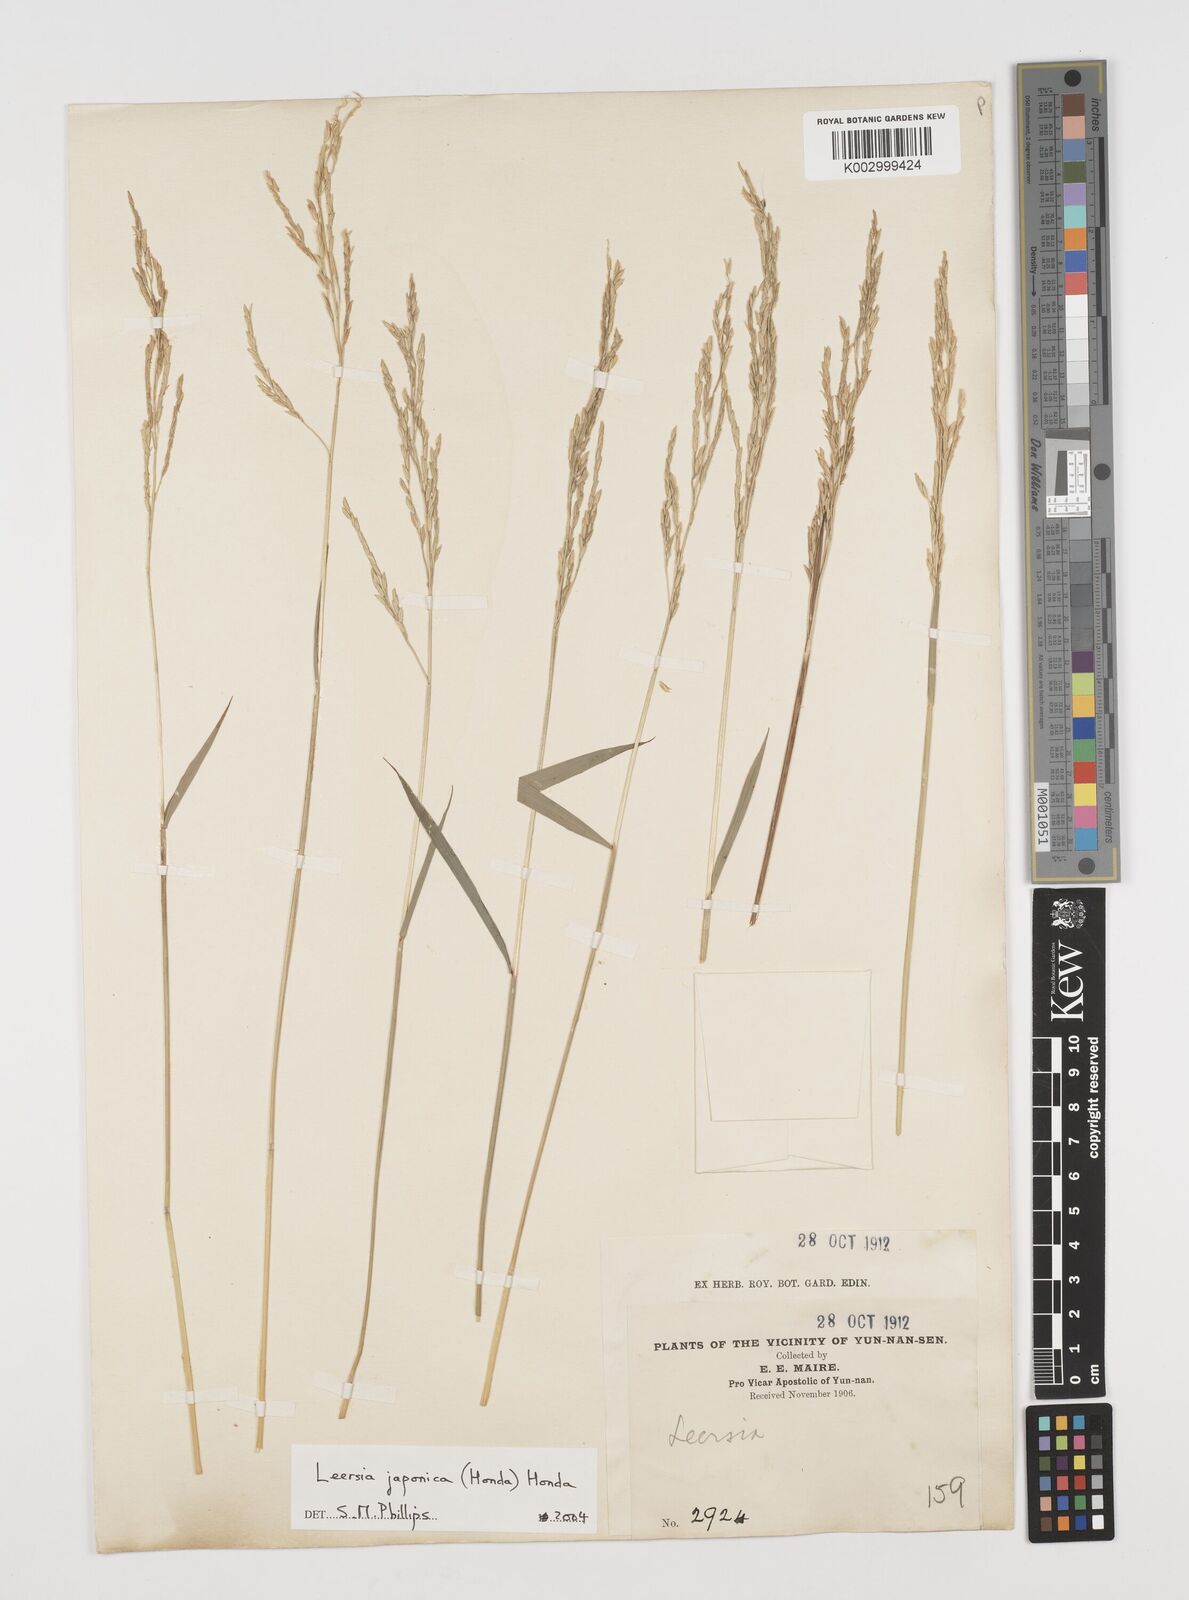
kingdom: Plantae
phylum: Tracheophyta
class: Liliopsida
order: Poales
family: Poaceae
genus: Leersia
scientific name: Leersia japonica
